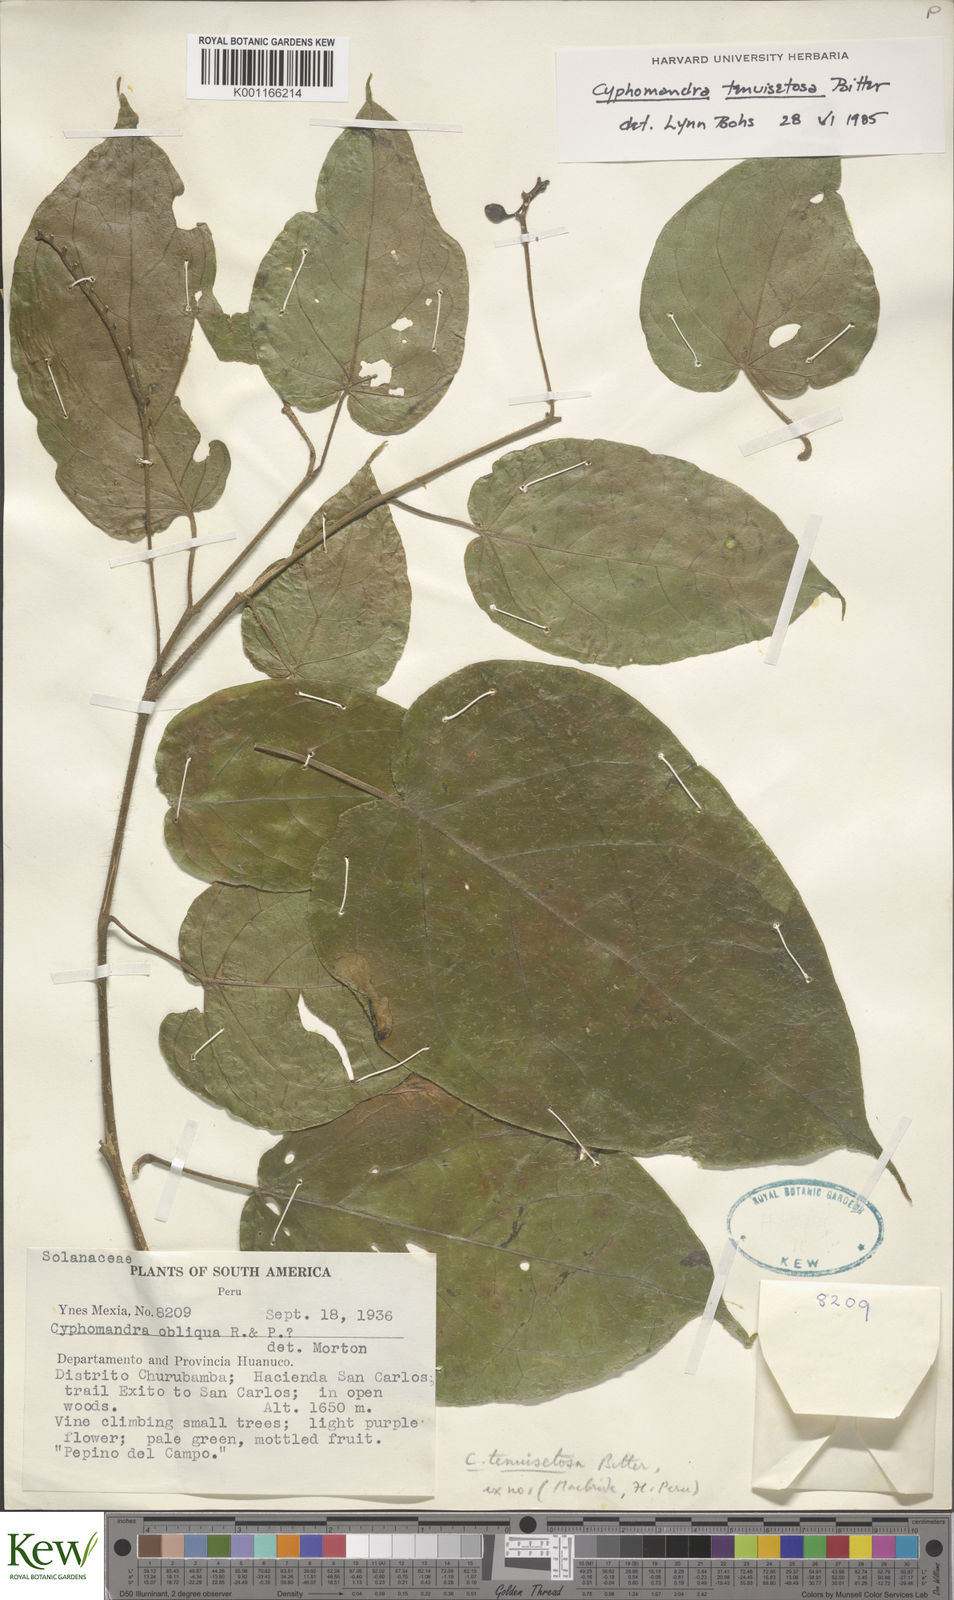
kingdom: Plantae
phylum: Tracheophyta
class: Magnoliopsida
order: Solanales
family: Solanaceae
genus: Solanum
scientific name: Solanum tenuisetosum
